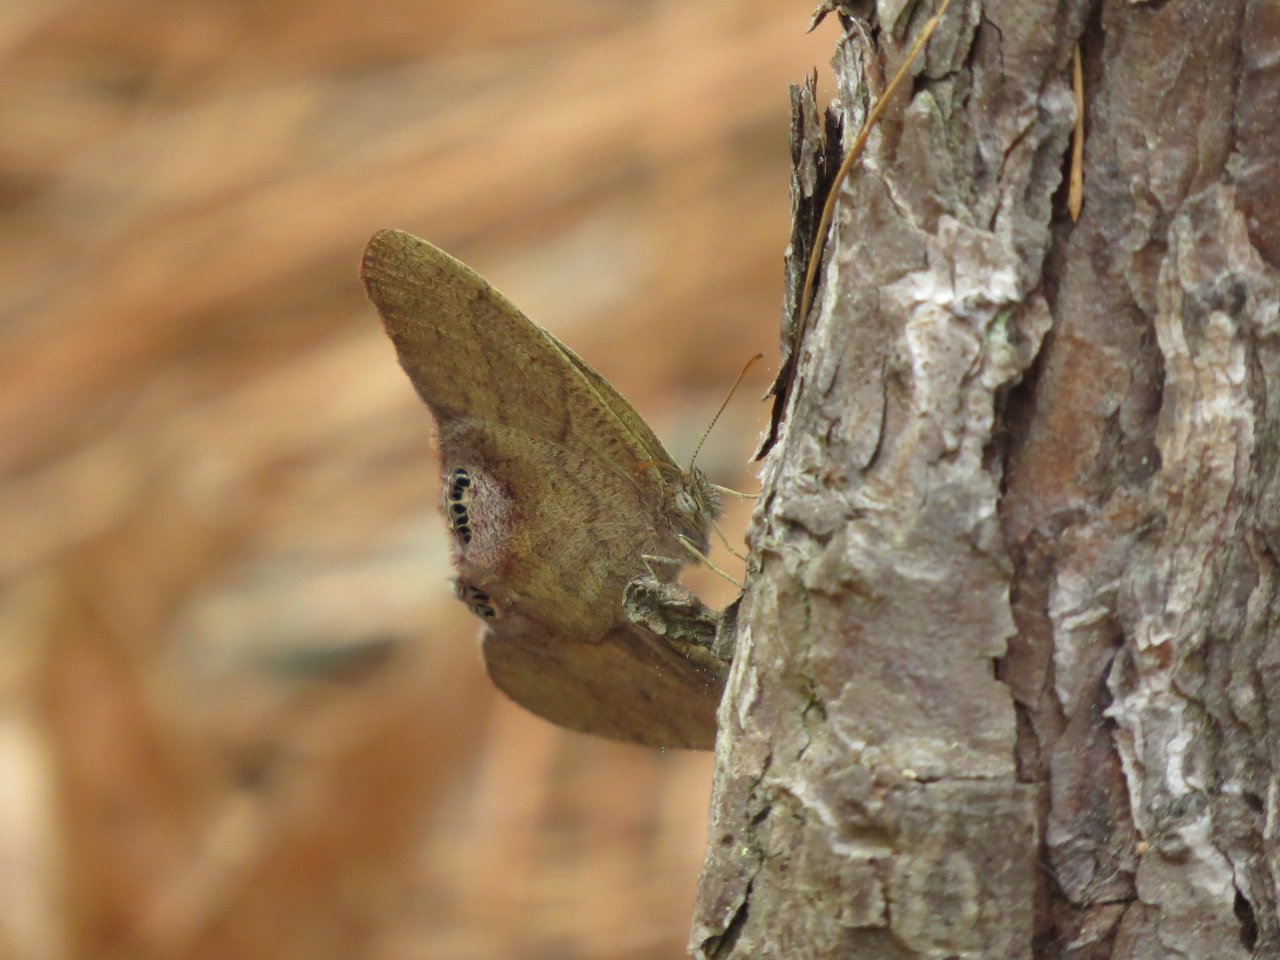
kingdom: Animalia
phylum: Arthropoda
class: Insecta
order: Lepidoptera
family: Nymphalidae
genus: Euptychia
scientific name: Euptychia cornelius
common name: Gemmed Satyr
